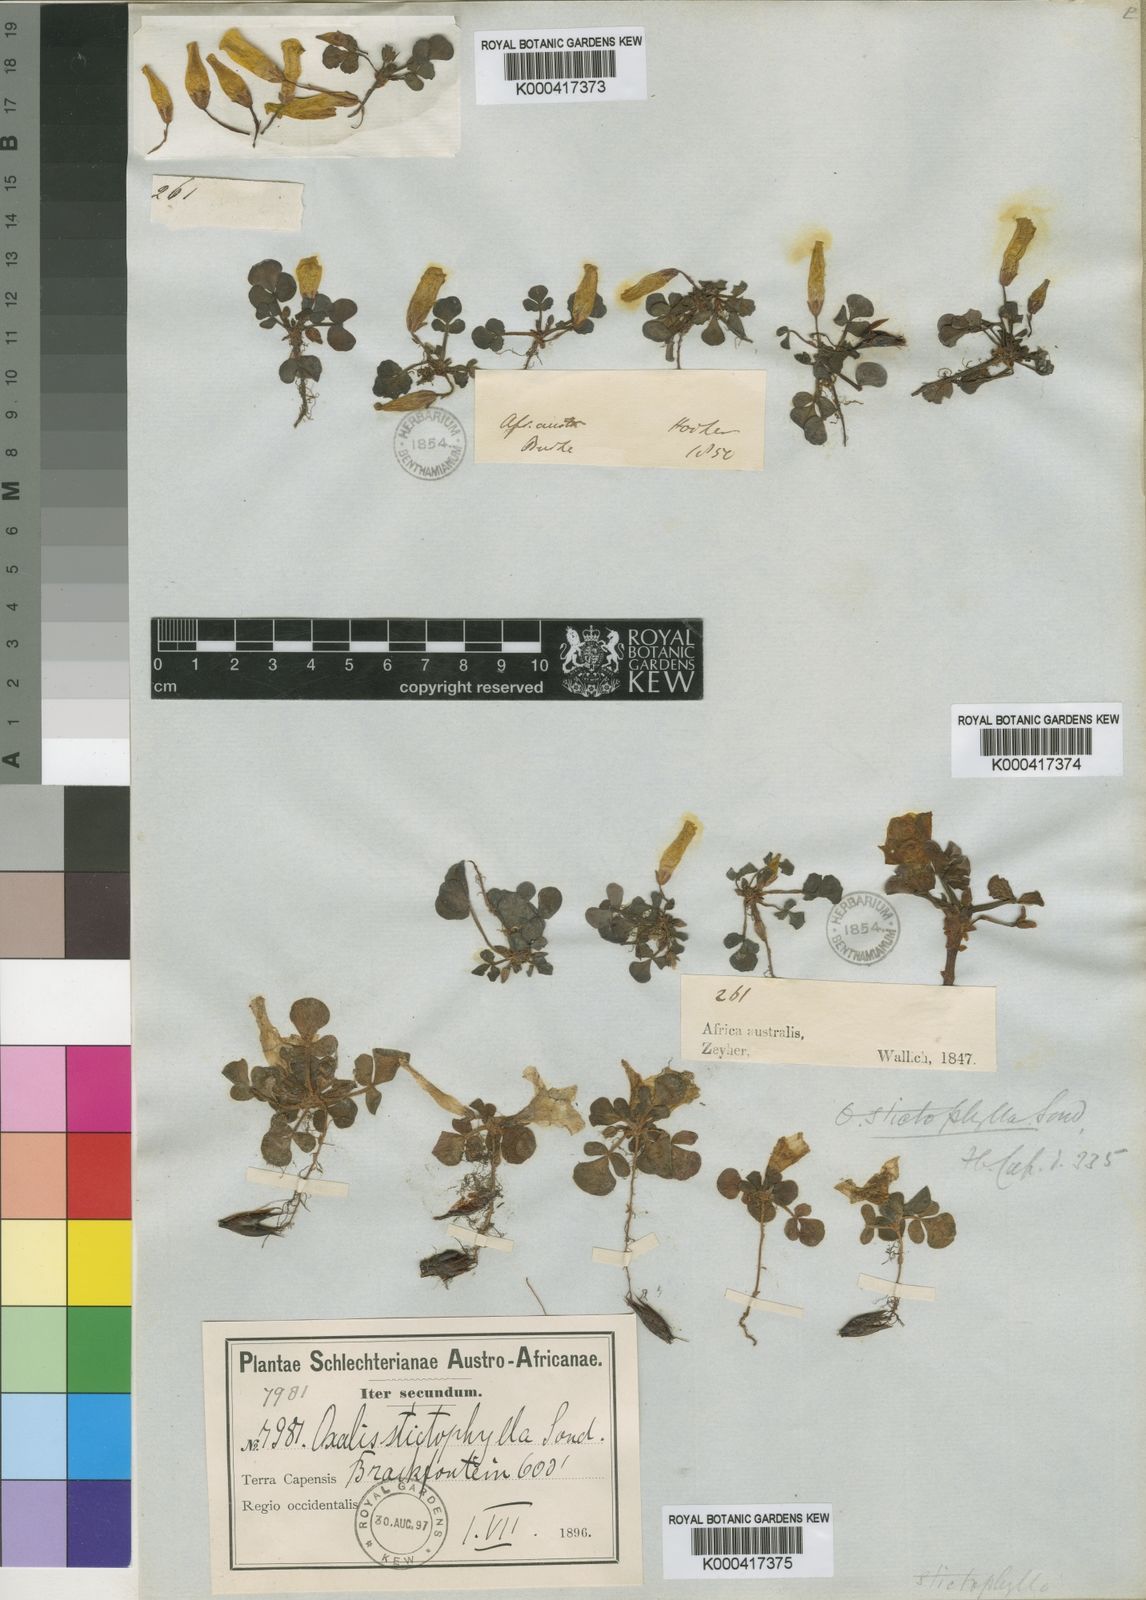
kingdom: Plantae
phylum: Tracheophyta
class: Magnoliopsida
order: Oxalidales
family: Oxalidaceae
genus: Oxalis
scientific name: Oxalis purpurea
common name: Purple woodsorrel
